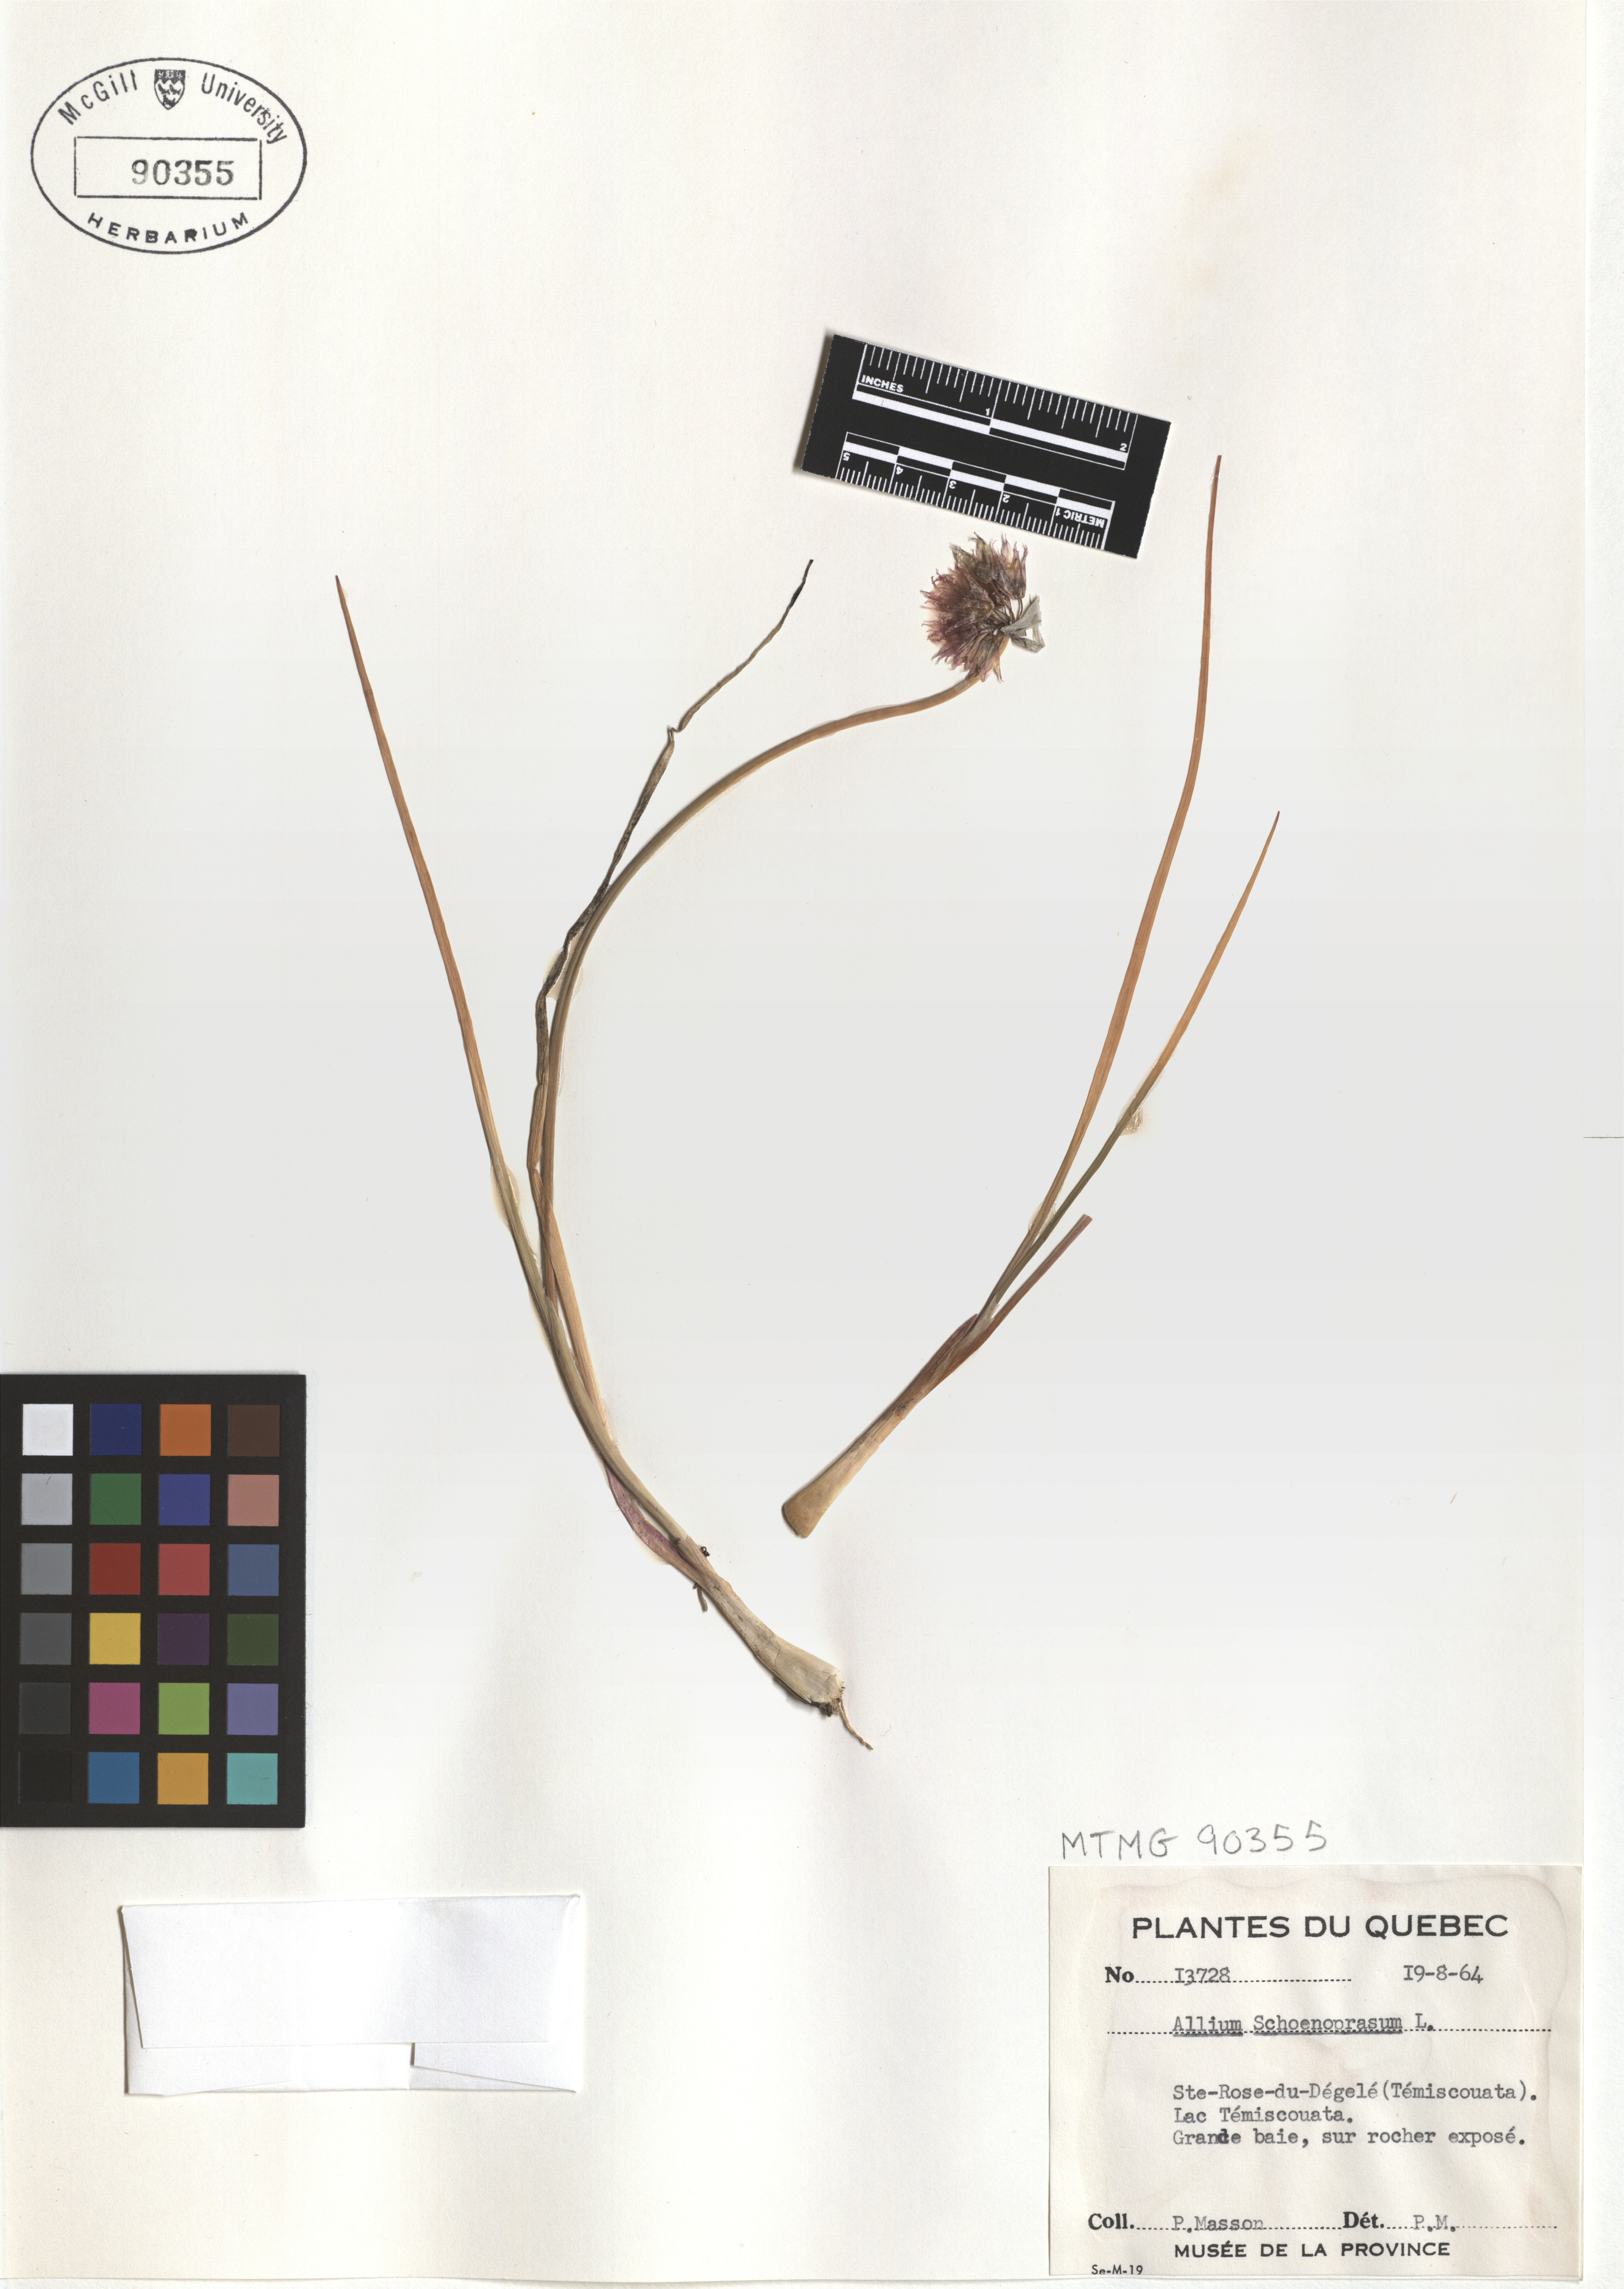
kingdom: Plantae
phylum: Tracheophyta
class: Liliopsida
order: Asparagales
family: Amaryllidaceae
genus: Allium
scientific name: Allium schoenoprasum
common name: Chives
